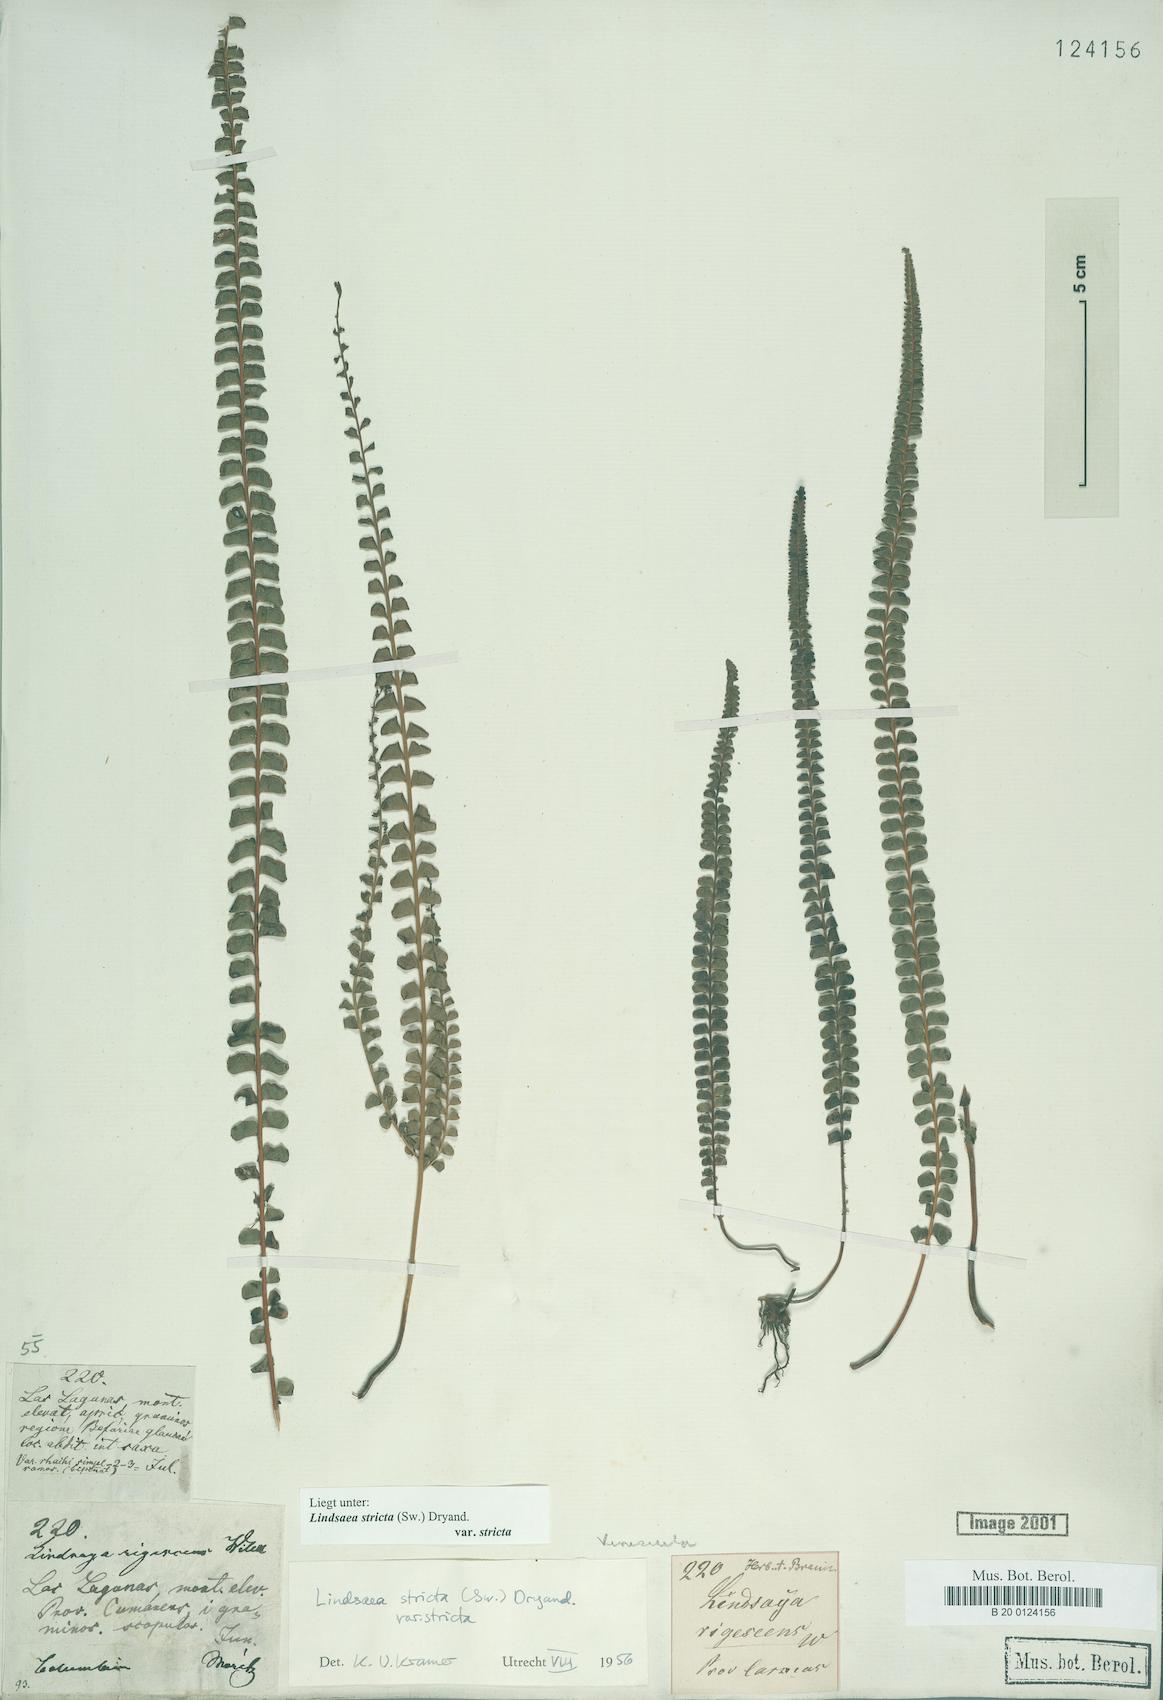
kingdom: Plantae
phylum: Tracheophyta
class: Polypodiopsida
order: Polypodiales
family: Lindsaeaceae
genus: Lindsaea
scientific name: Lindsaea stricta
